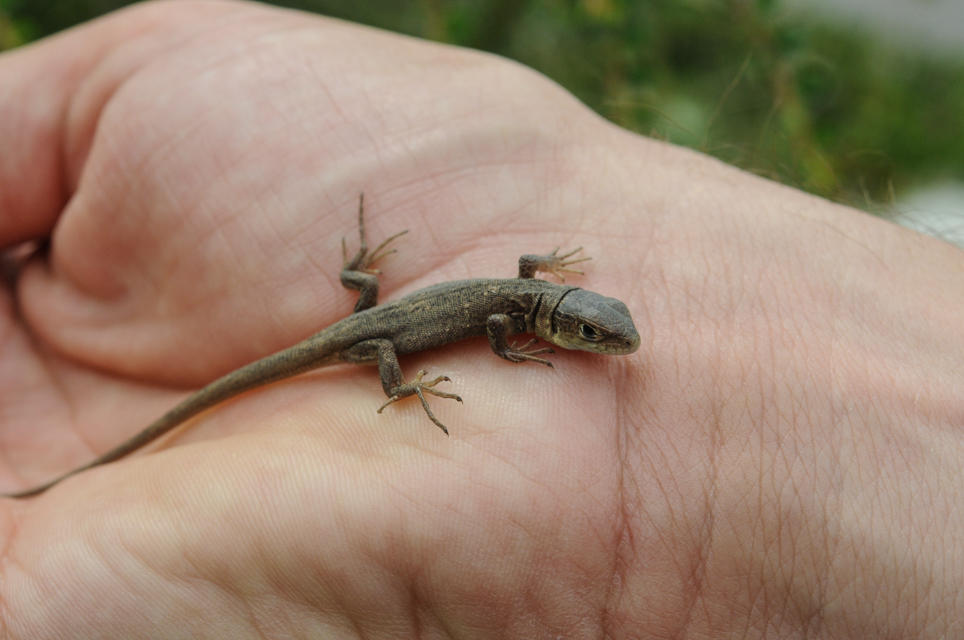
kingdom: Animalia
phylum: Chordata
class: Squamata
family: Lacertidae
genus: Zootoca
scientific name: Zootoca vivipara
